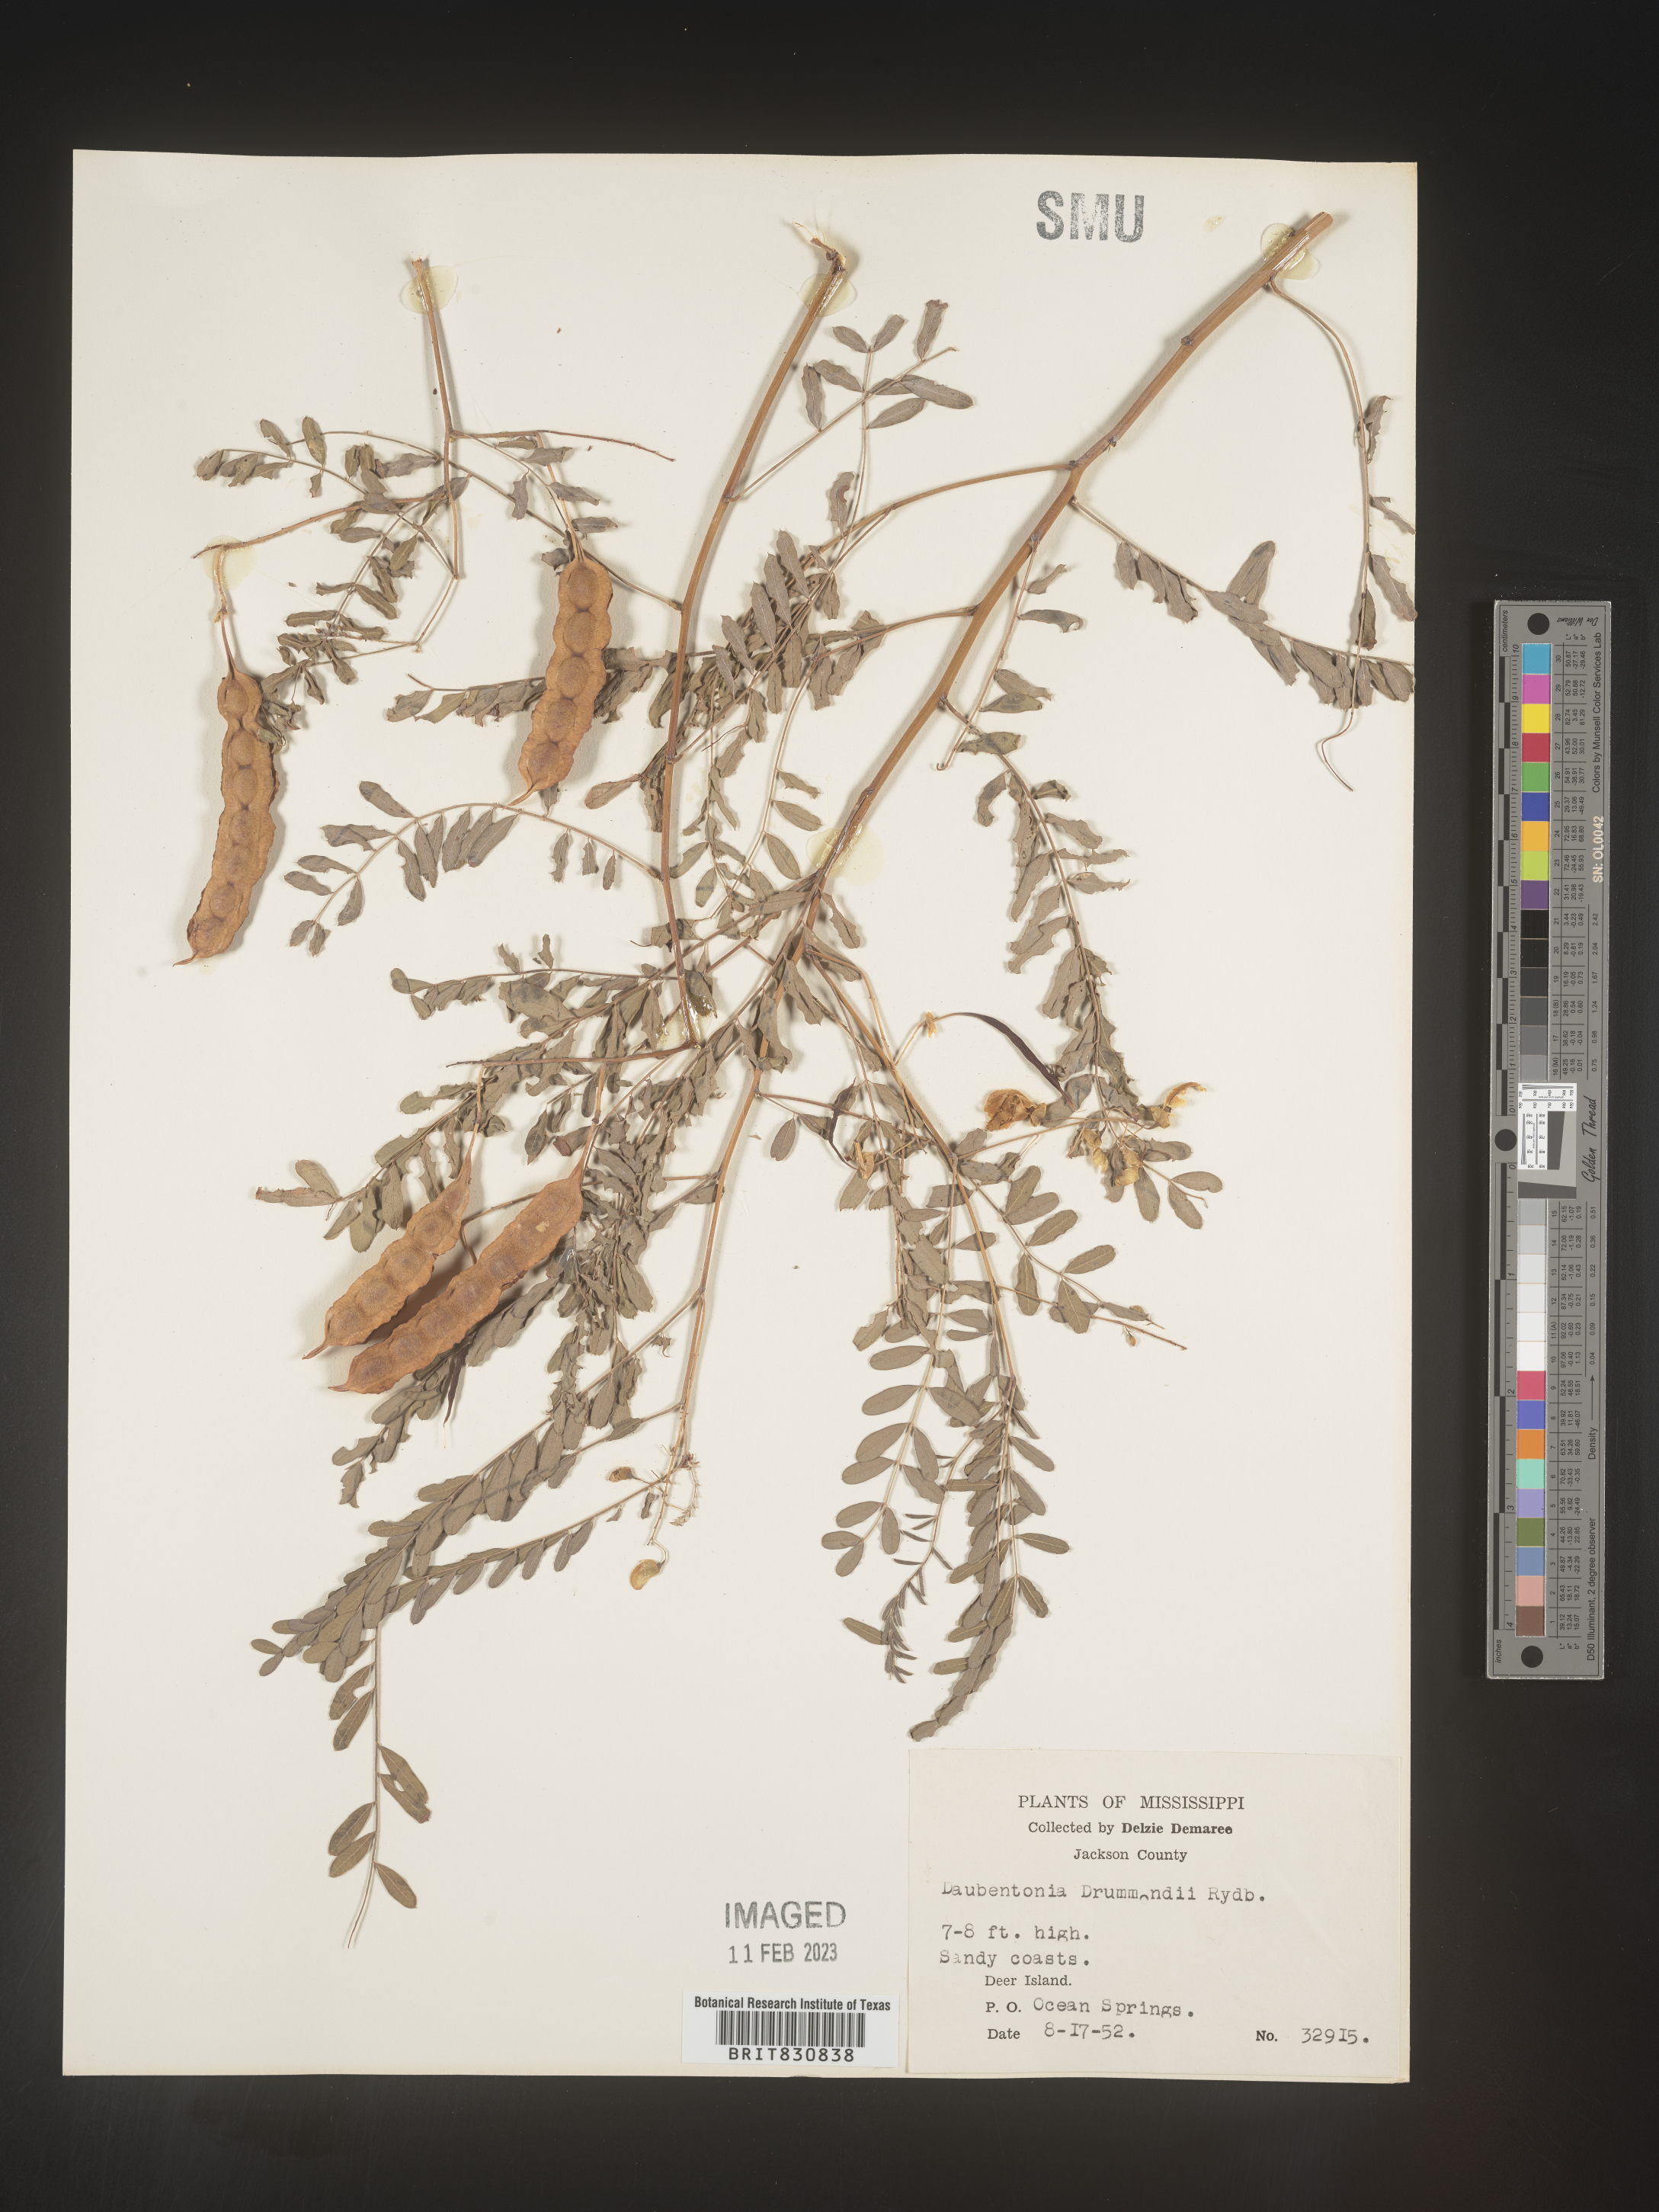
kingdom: Plantae
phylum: Tracheophyta
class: Magnoliopsida
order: Fabales
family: Fabaceae
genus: Sesbania
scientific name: Sesbania drummondii
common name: Poison-bean
